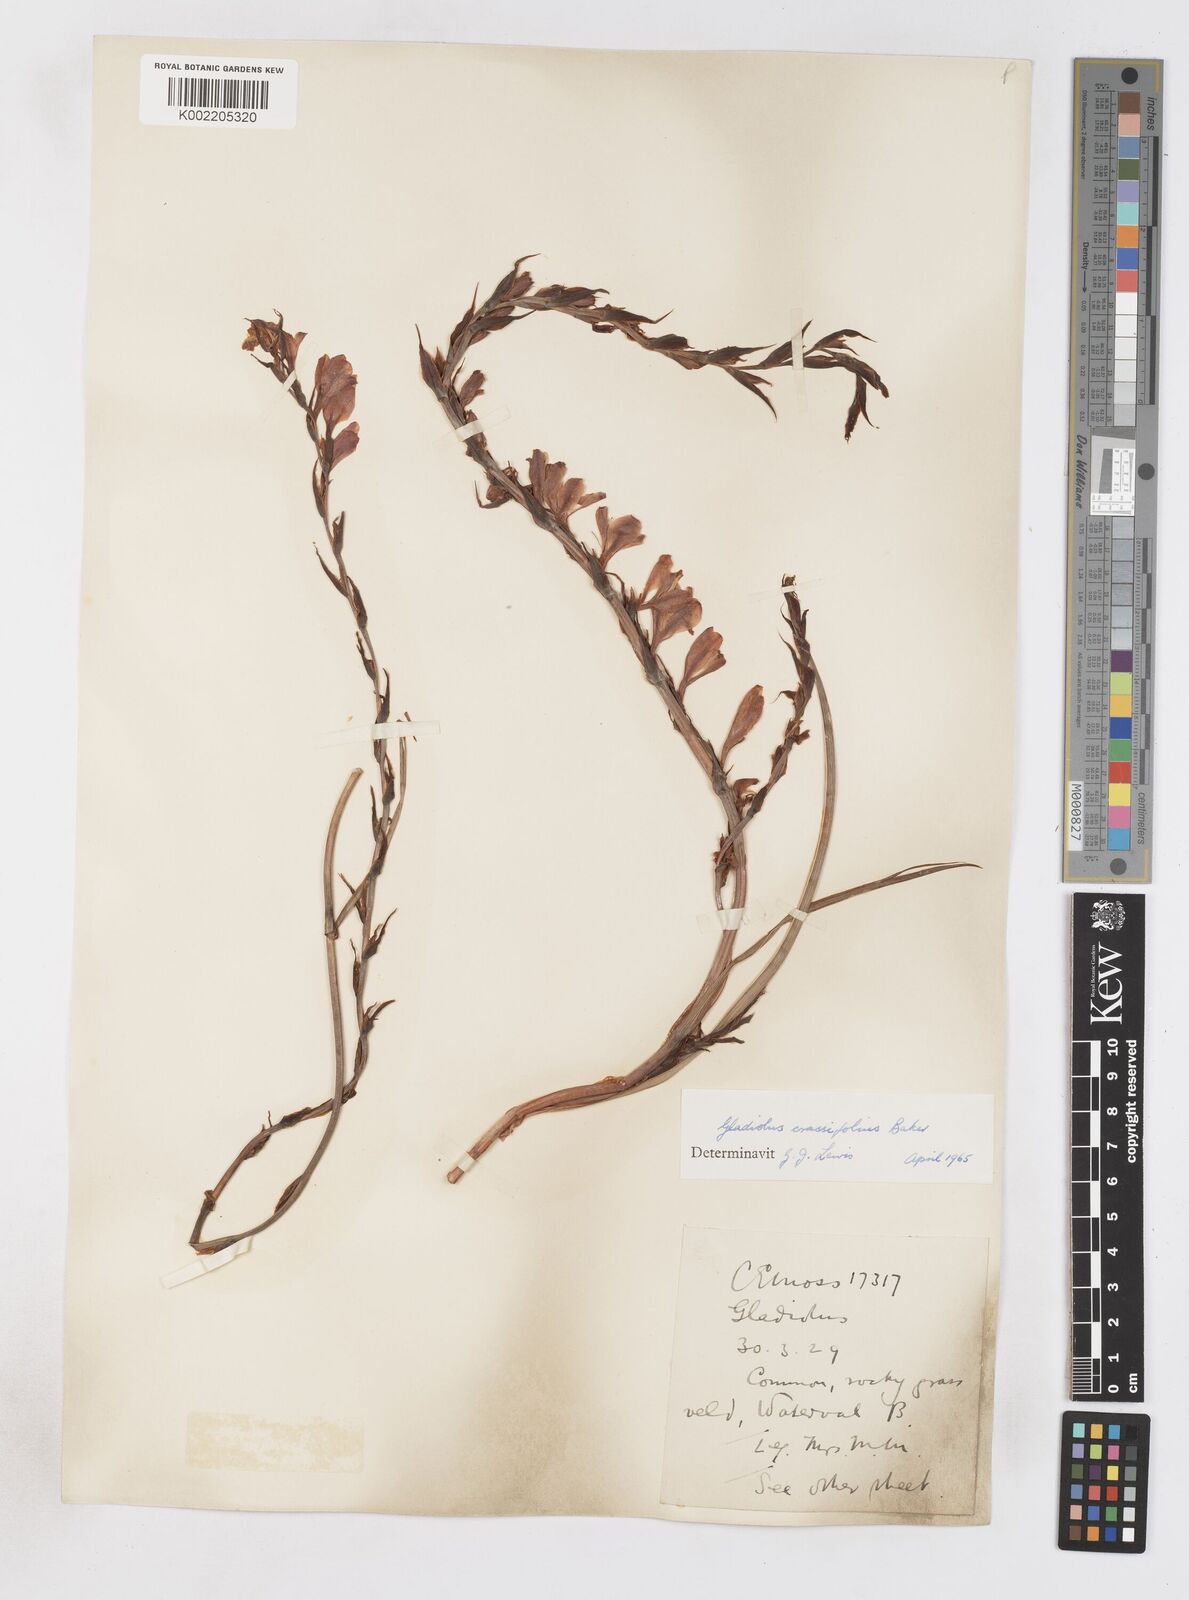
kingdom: Plantae
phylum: Tracheophyta
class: Liliopsida
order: Asparagales
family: Iridaceae
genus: Gladiolus
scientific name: Gladiolus crassifolius
